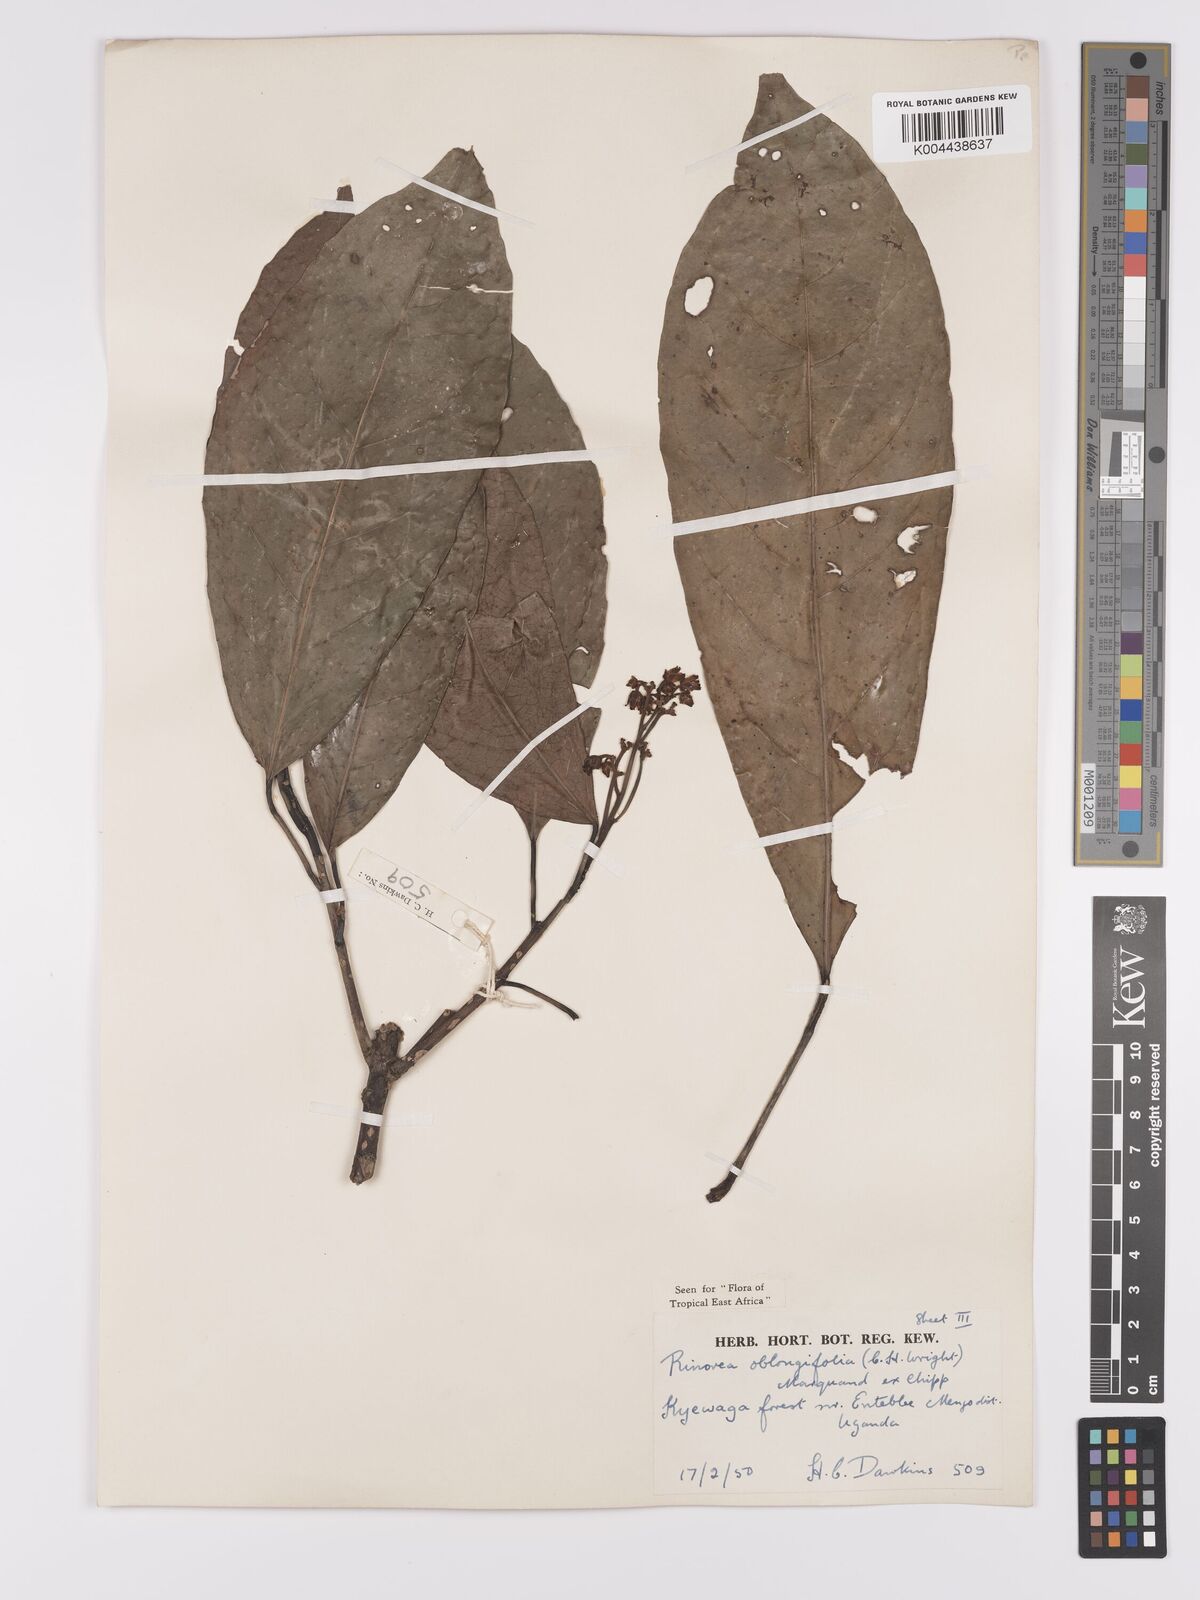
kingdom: Plantae
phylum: Tracheophyta
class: Magnoliopsida
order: Apiales
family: Pittosporaceae
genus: Marianthus
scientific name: Marianthus coeruleopunctatus
